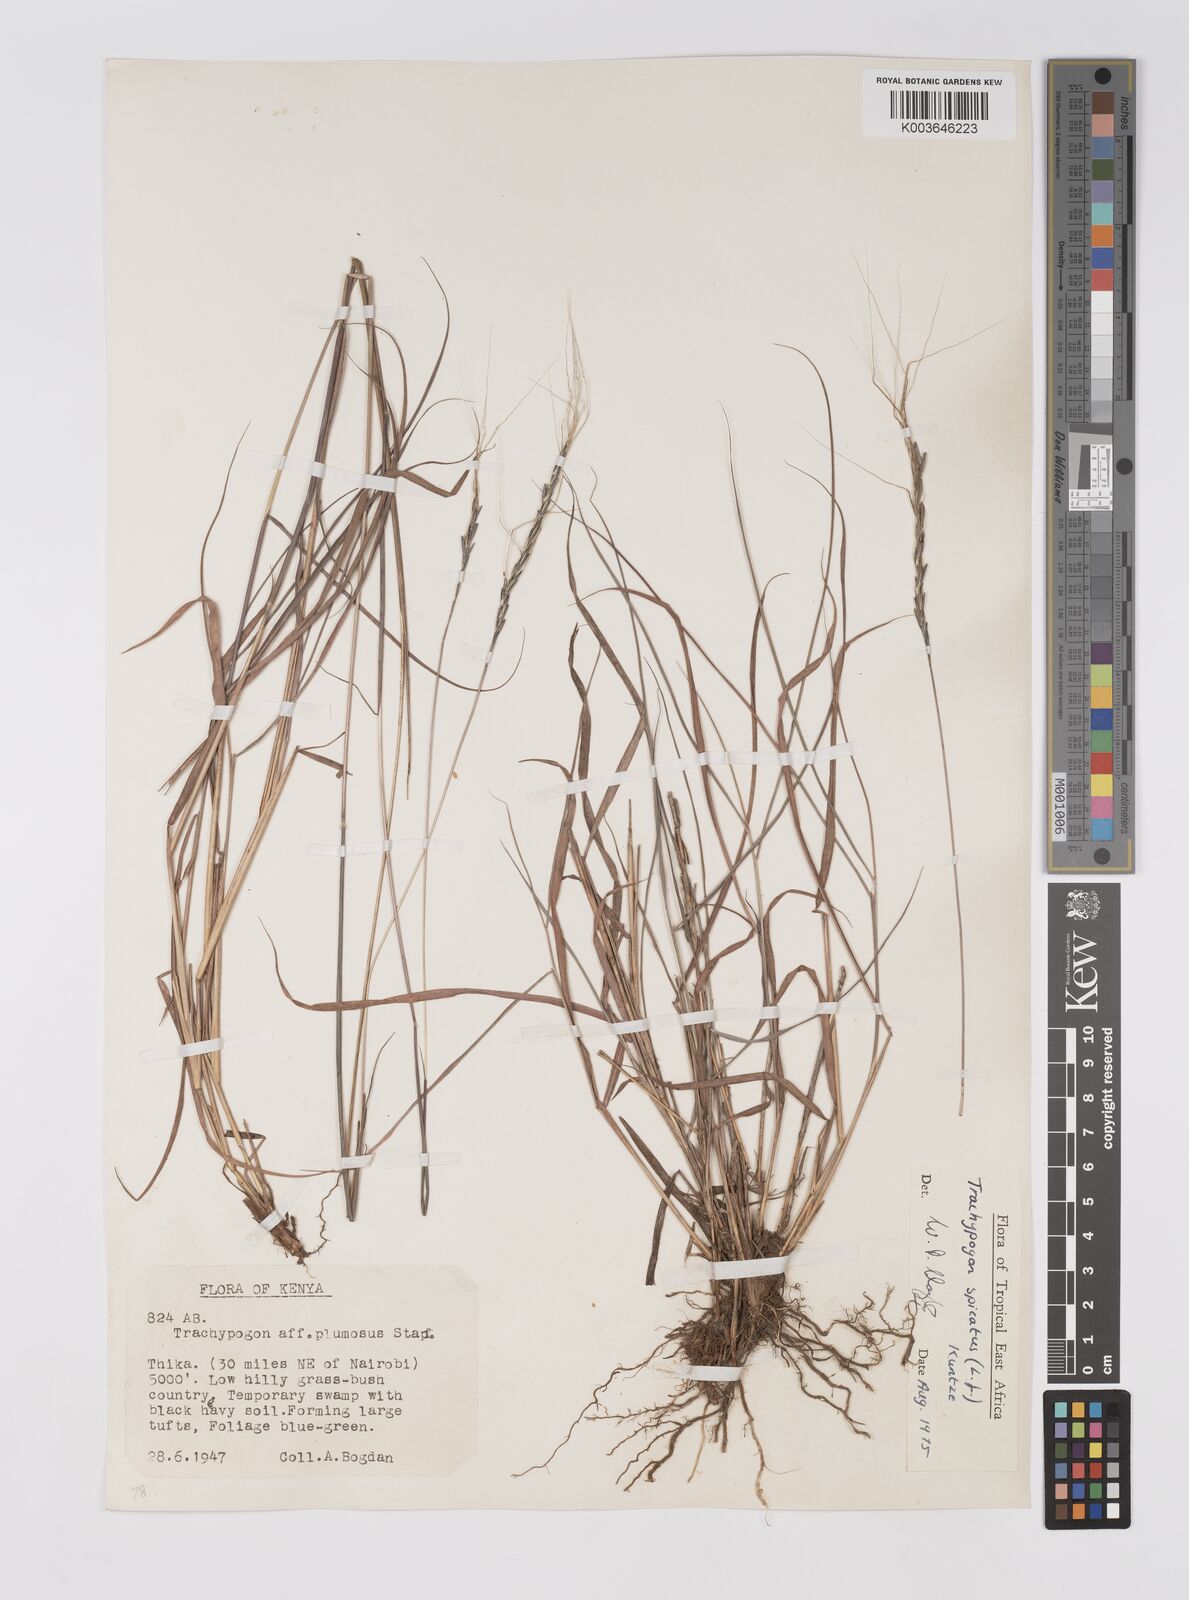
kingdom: Plantae
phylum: Tracheophyta
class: Liliopsida
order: Poales
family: Poaceae
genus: Trachypogon
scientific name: Trachypogon spicatus
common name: Crinkle-awn
